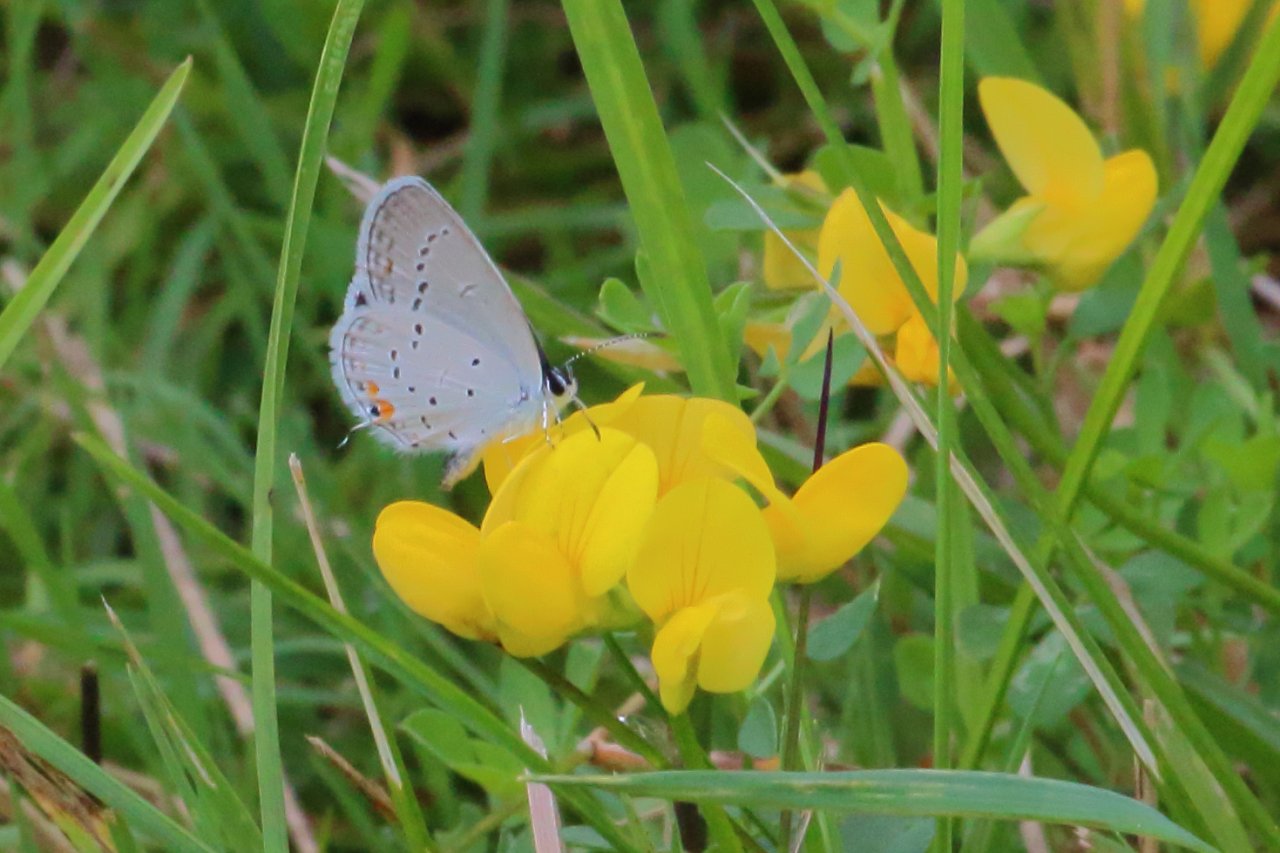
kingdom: Animalia
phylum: Arthropoda
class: Insecta
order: Lepidoptera
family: Lycaenidae
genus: Elkalyce
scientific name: Elkalyce comyntas
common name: Eastern Tailed-Blue
